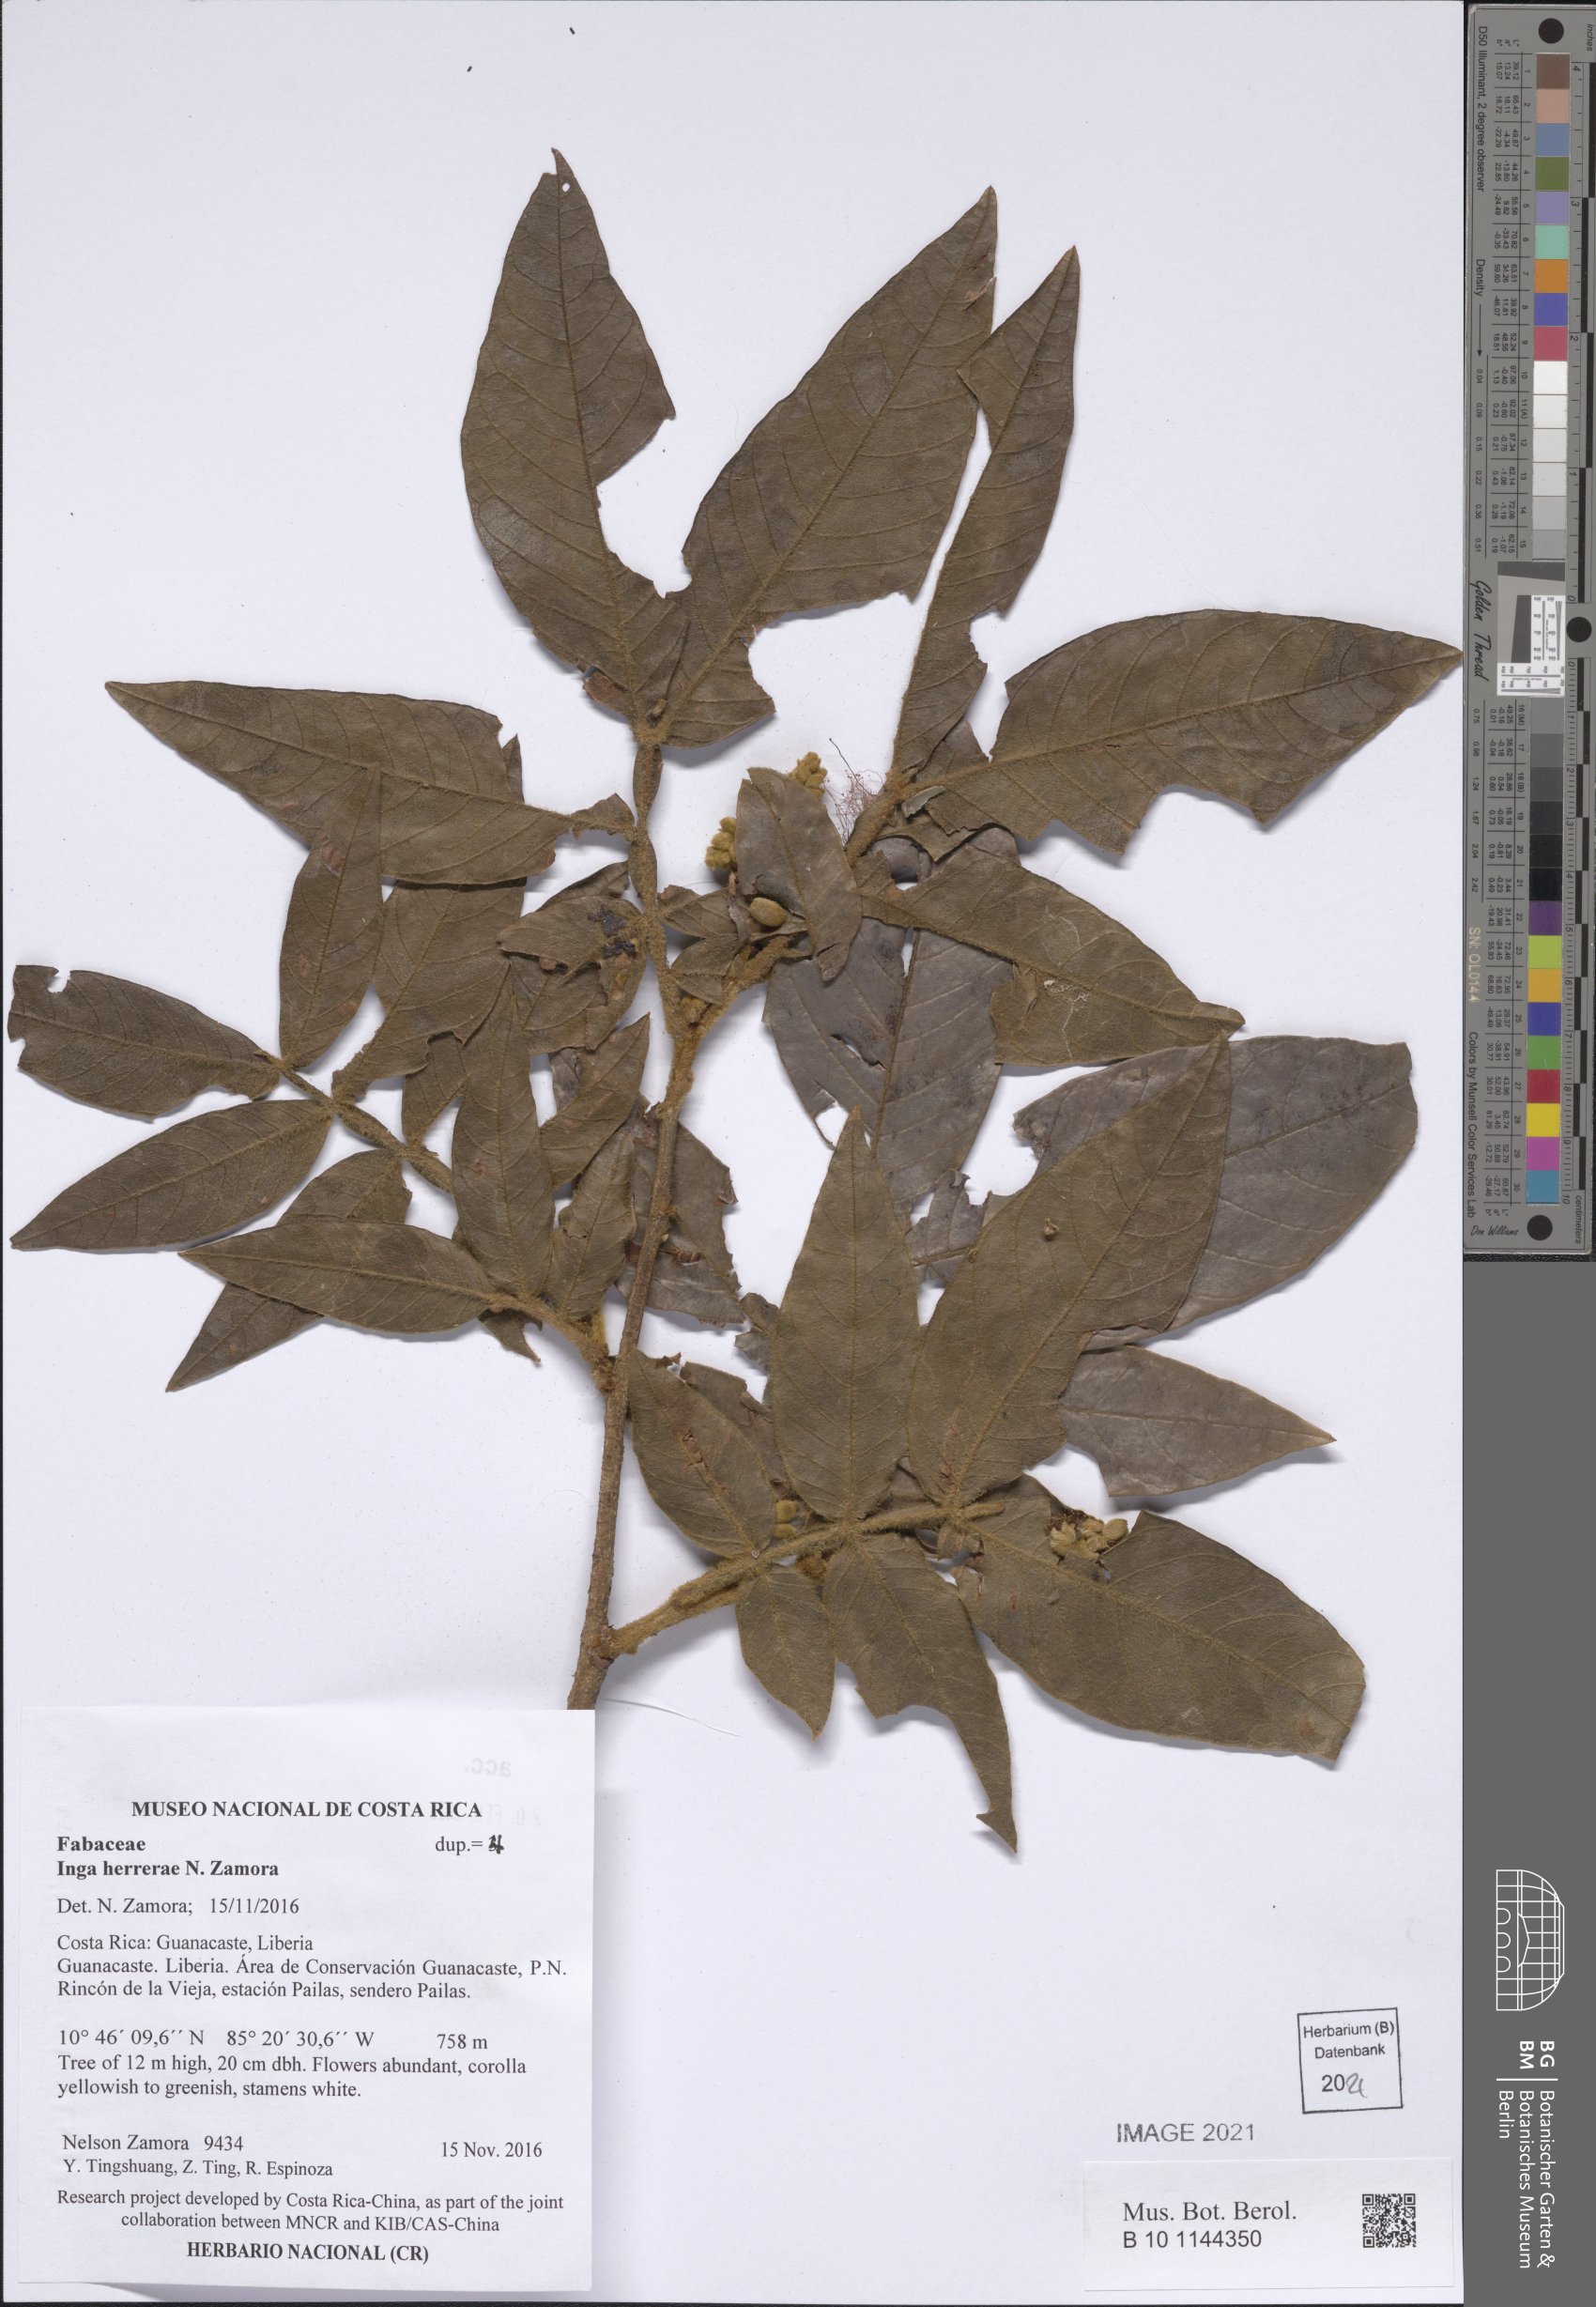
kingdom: Plantae
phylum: Tracheophyta
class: Magnoliopsida
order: Fabales
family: Fabaceae
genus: Inga
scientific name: Inga herrerae
